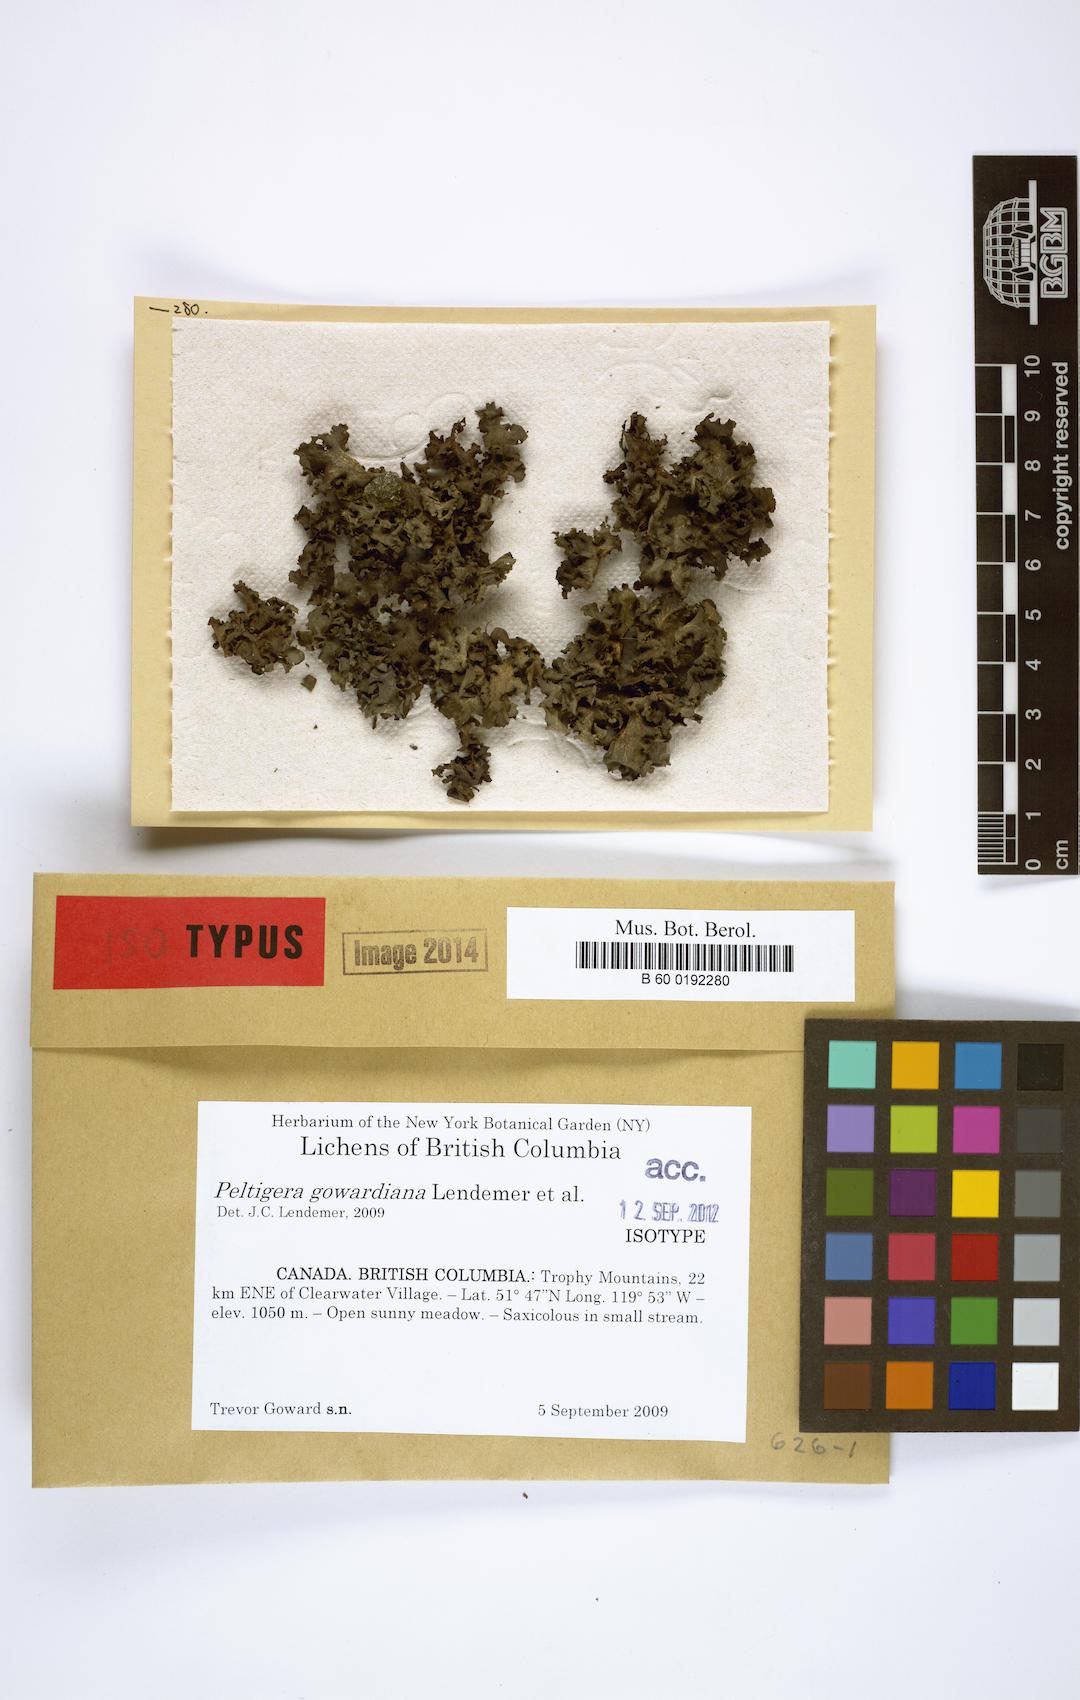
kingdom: Fungi
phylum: Ascomycota
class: Lecanoromycetes
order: Peltigerales
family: Peltigeraceae
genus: Peltigera
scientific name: Peltigera
